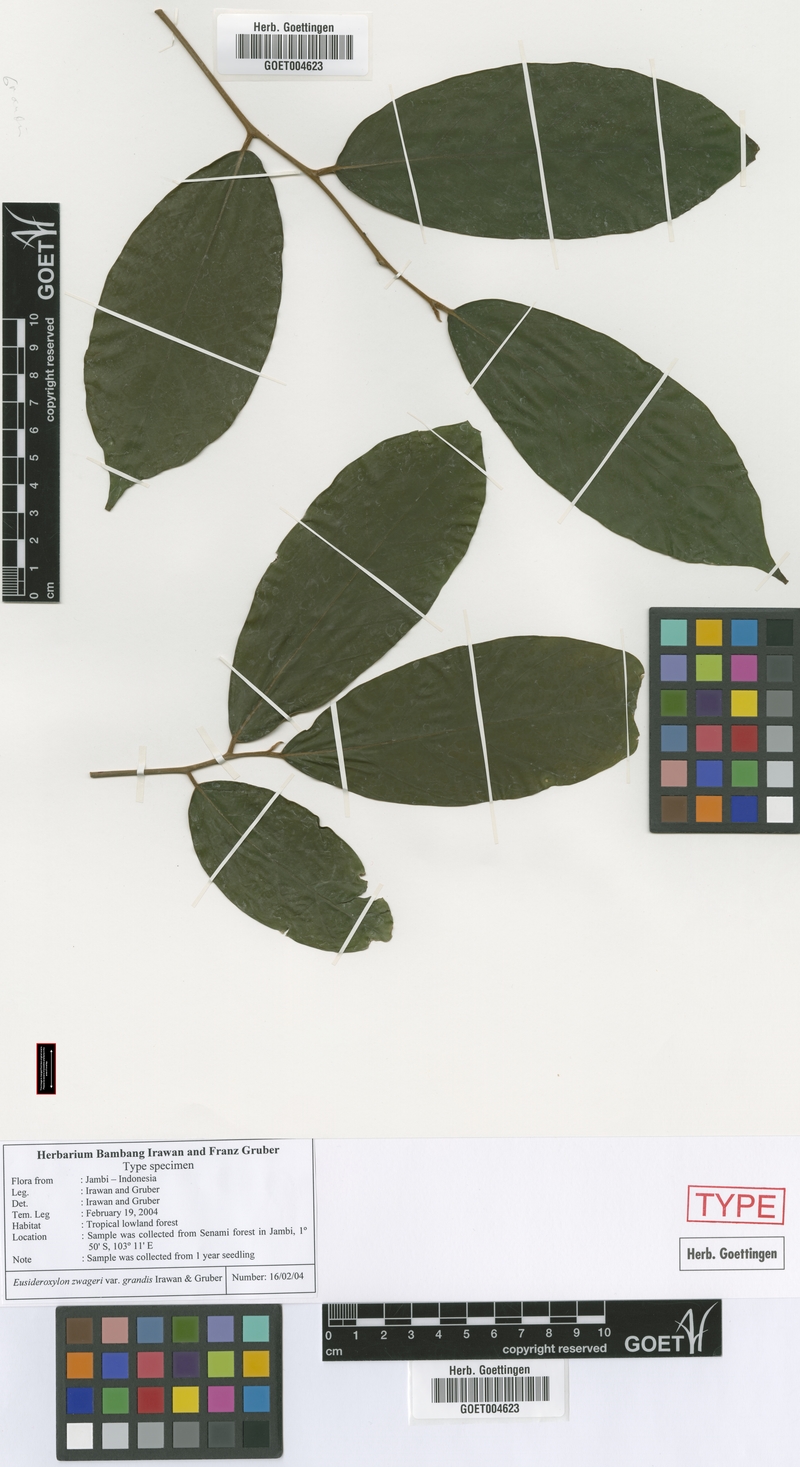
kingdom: Plantae
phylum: Tracheophyta
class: Magnoliopsida
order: Laurales
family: Lauraceae
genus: Eusideroxylon
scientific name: Eusideroxylon zwageri
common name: Borneo ironwood
